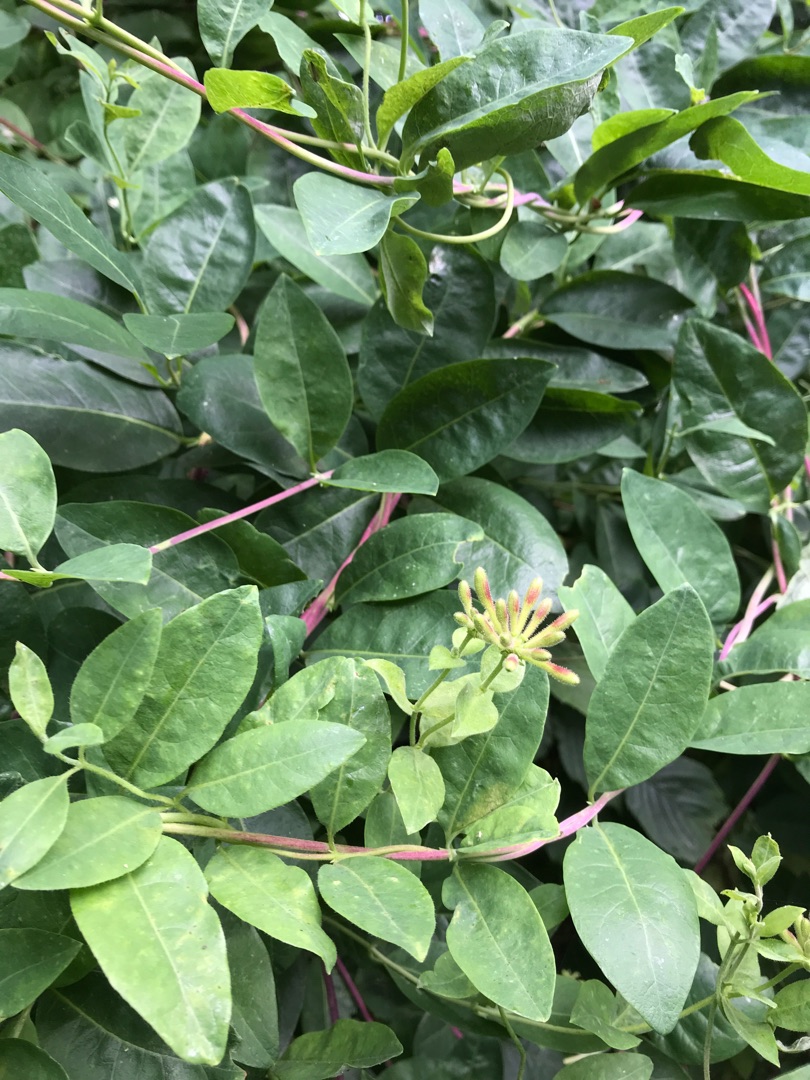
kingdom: Plantae
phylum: Tracheophyta
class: Magnoliopsida
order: Dipsacales
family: Caprifoliaceae
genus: Lonicera
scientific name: Lonicera periclymenum
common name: Almindelig gedeblad
